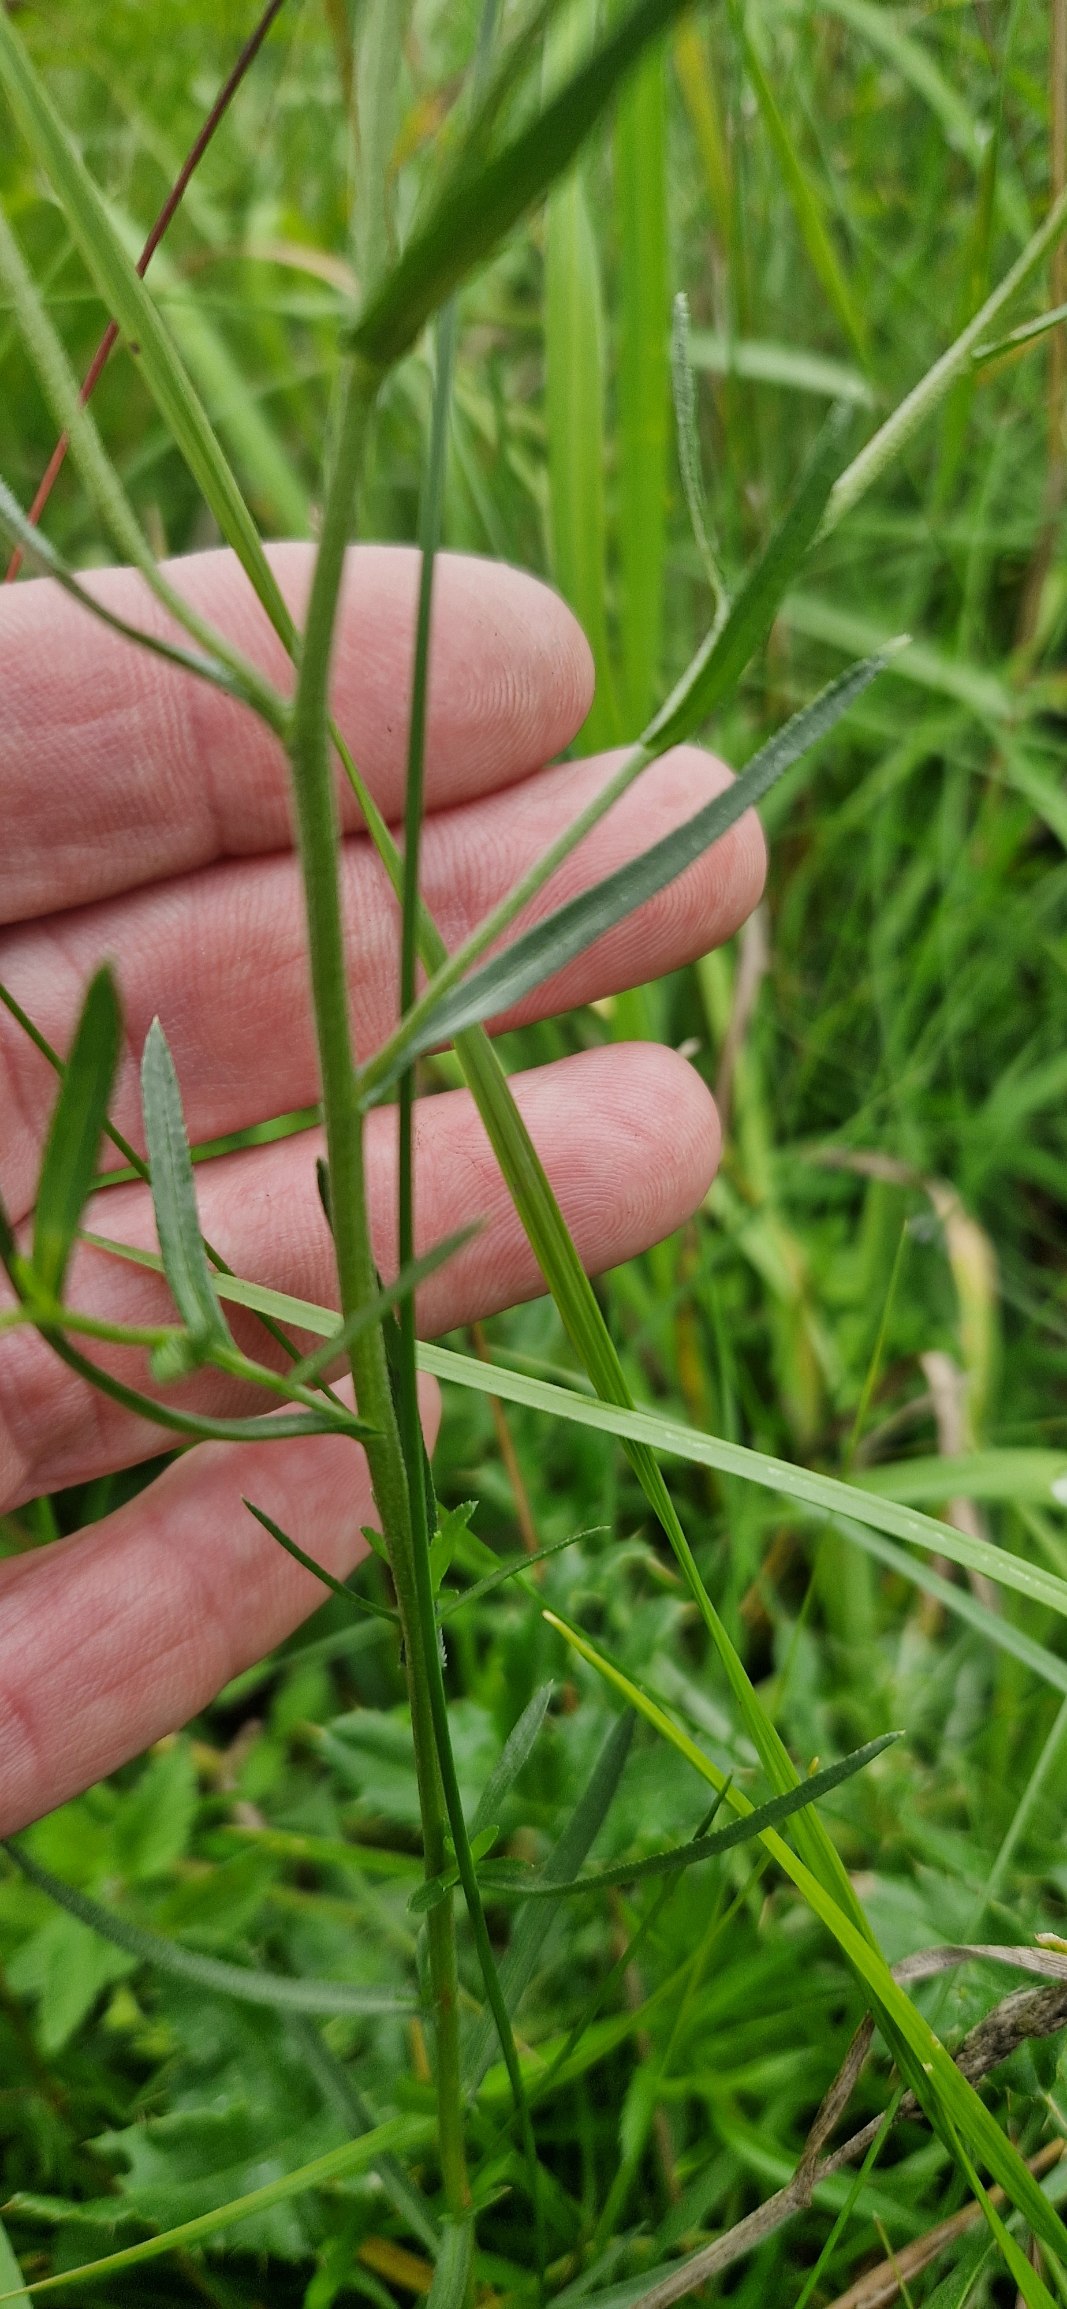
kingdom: Plantae
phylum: Tracheophyta
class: Magnoliopsida
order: Asterales
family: Asteraceae
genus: Achillea
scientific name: Achillea ptarmica
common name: Nyse-røllike
